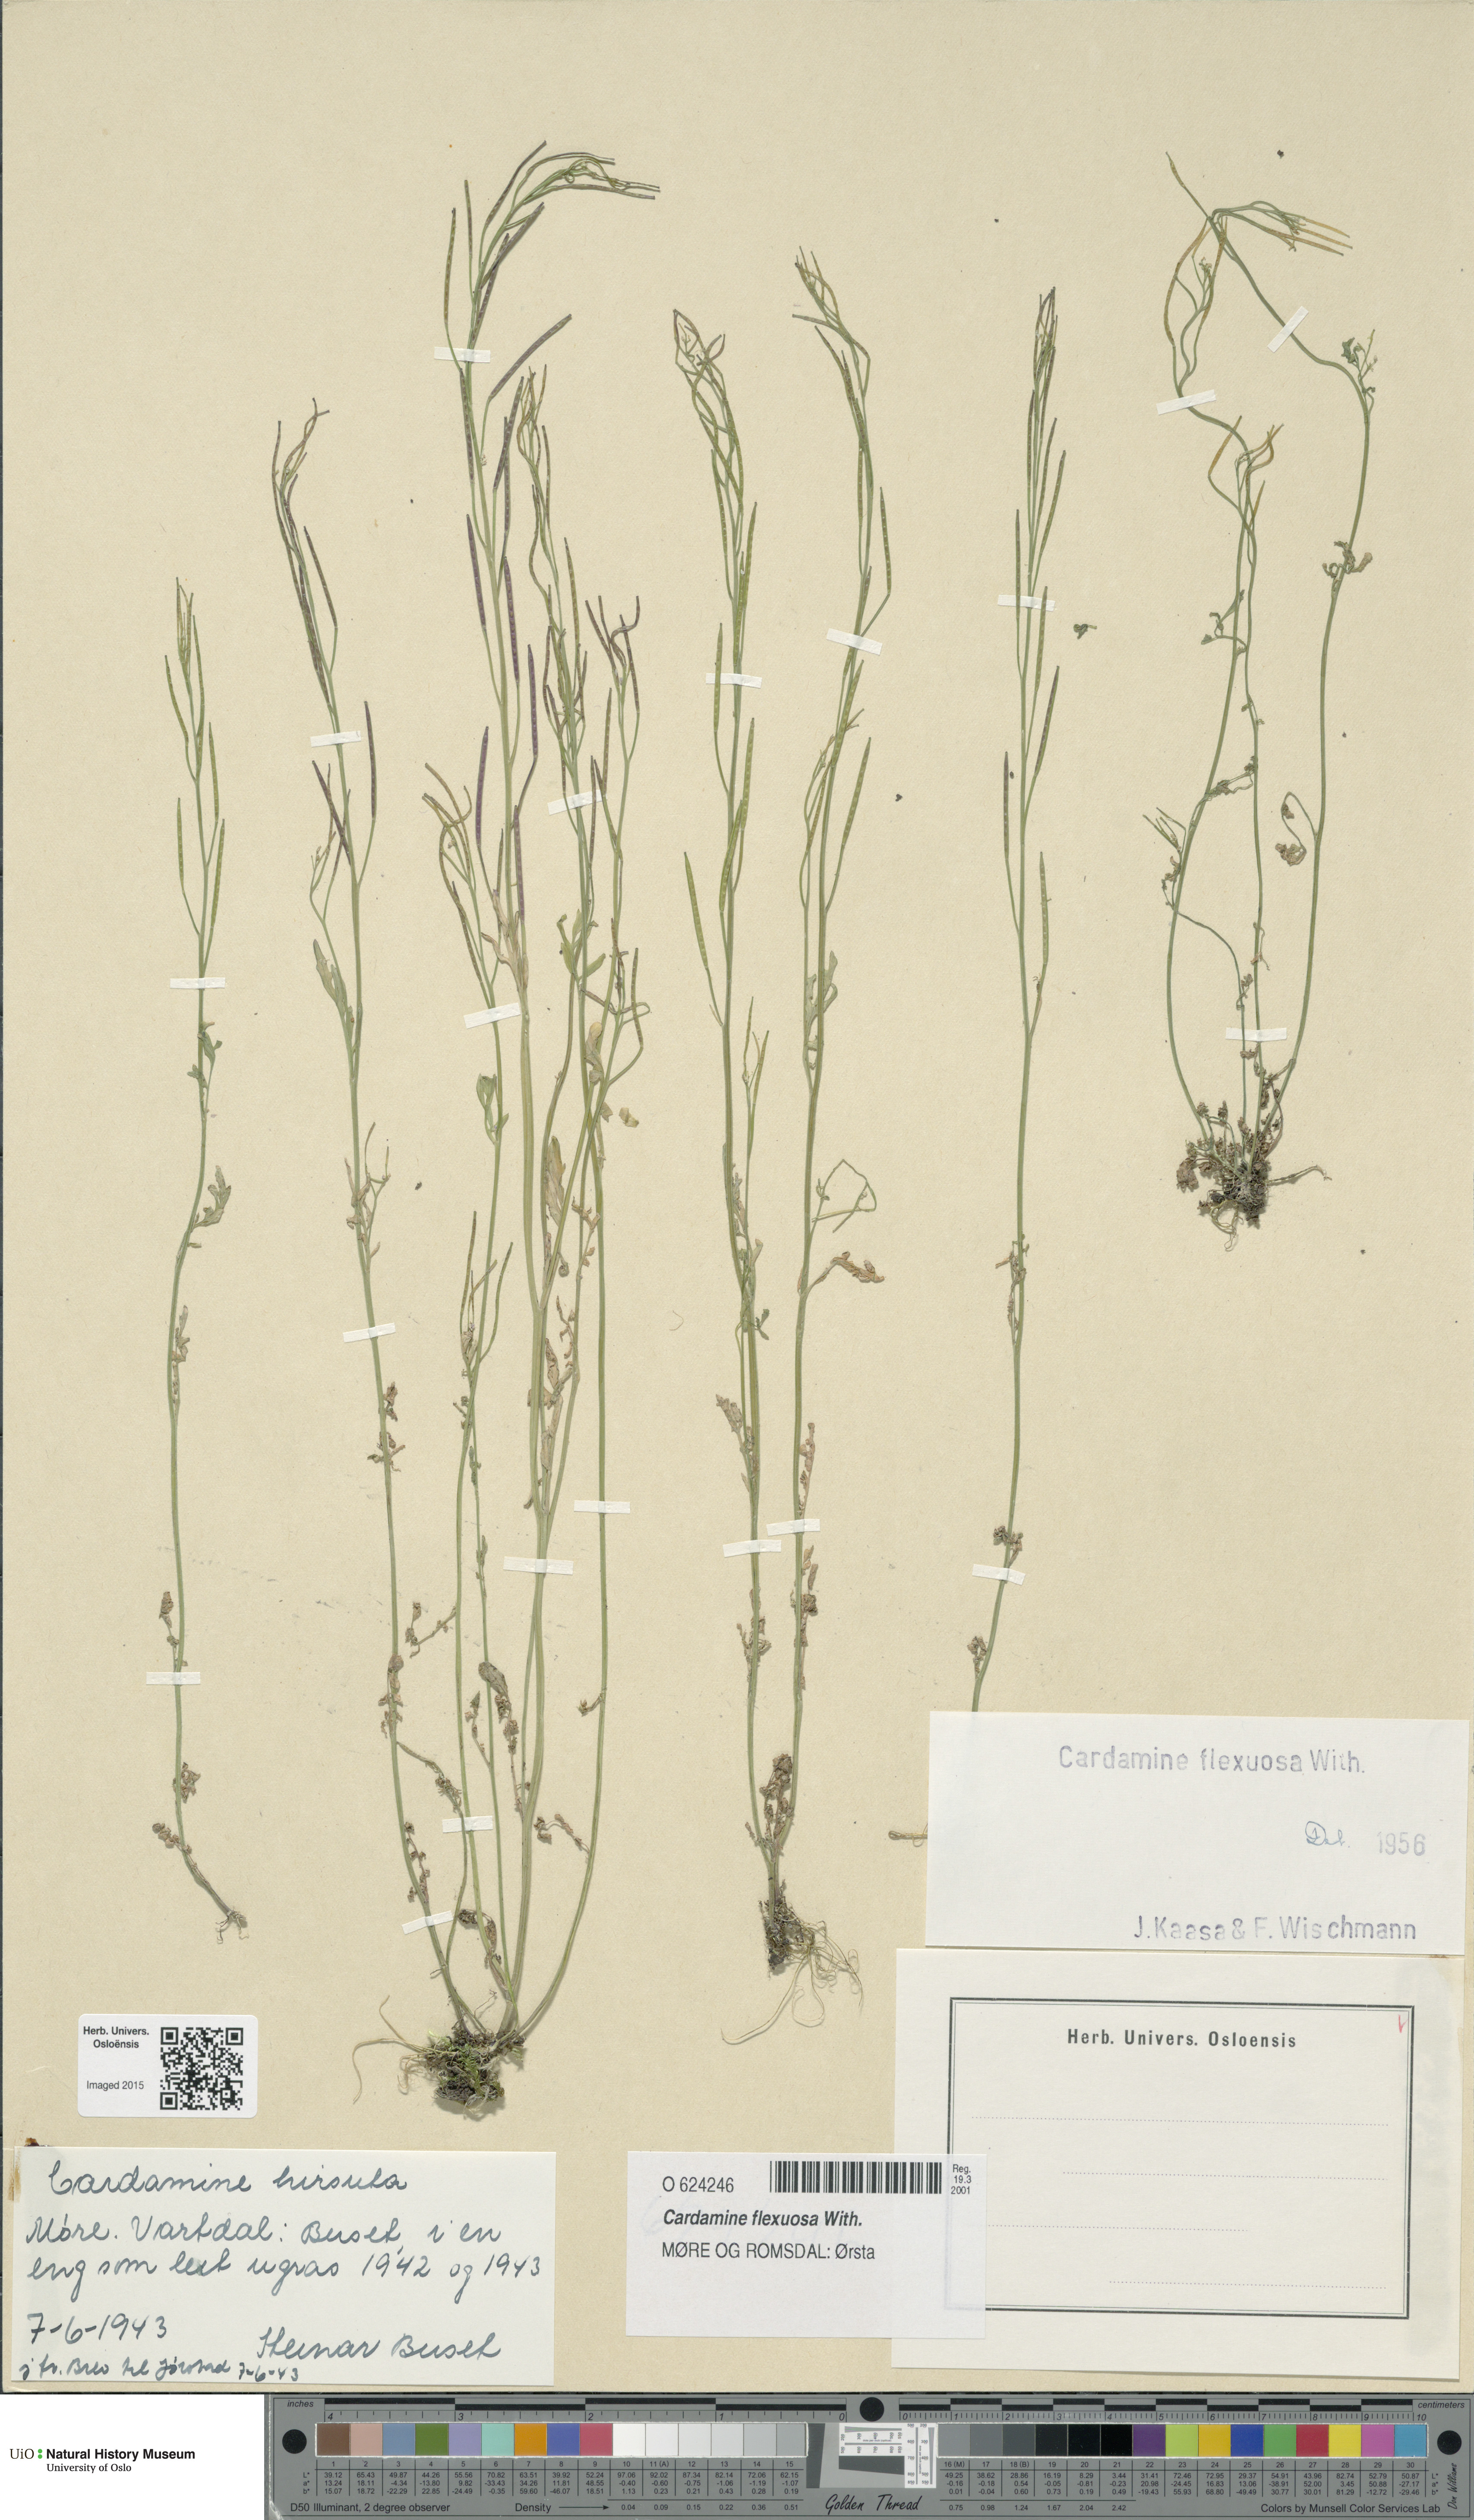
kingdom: Plantae
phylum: Tracheophyta
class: Magnoliopsida
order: Brassicales
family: Brassicaceae
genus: Cardamine
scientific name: Cardamine flexuosa
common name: Woodland bittercress
